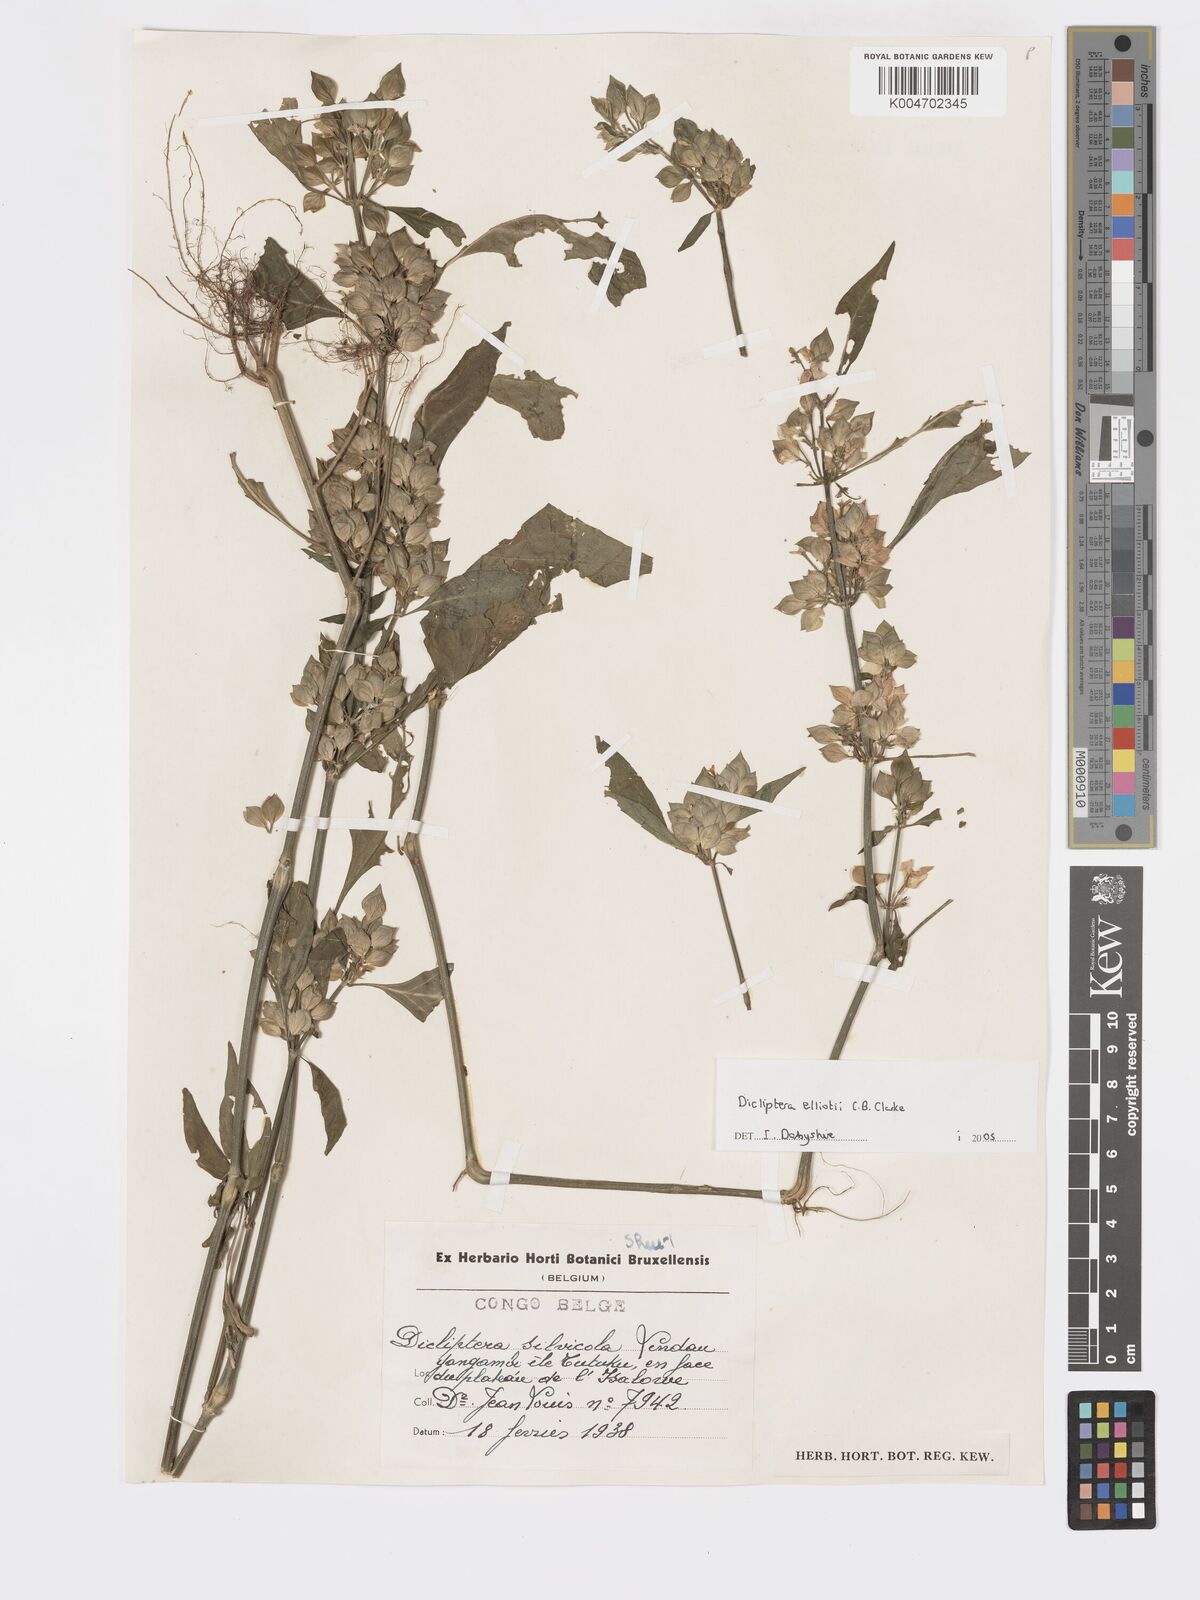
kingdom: Plantae
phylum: Tracheophyta
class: Magnoliopsida
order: Lamiales
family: Acanthaceae
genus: Dicliptera
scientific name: Dicliptera elliotii
